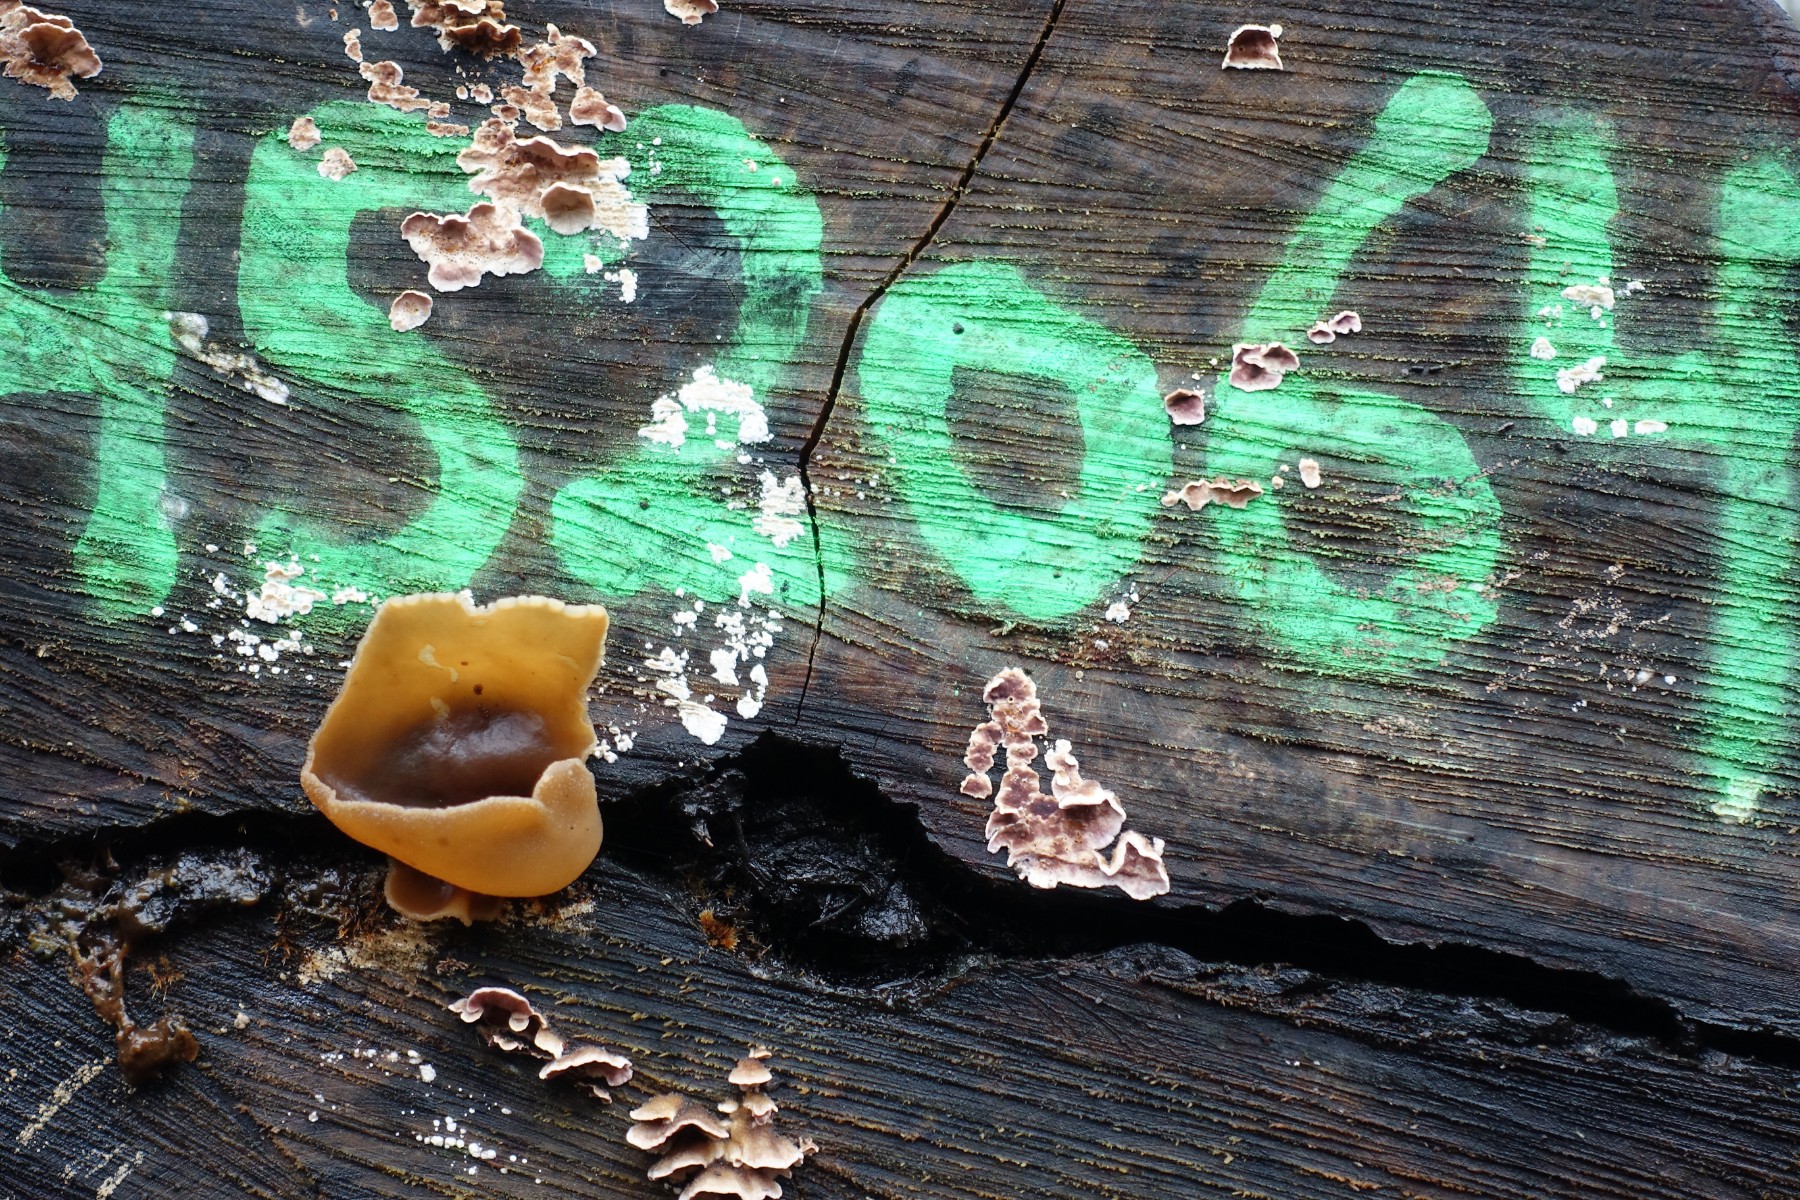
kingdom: Fungi
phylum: Ascomycota
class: Pezizomycetes
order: Pezizales
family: Pezizaceae
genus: Peziza
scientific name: Peziza varia
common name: Ved-bægersvamp
